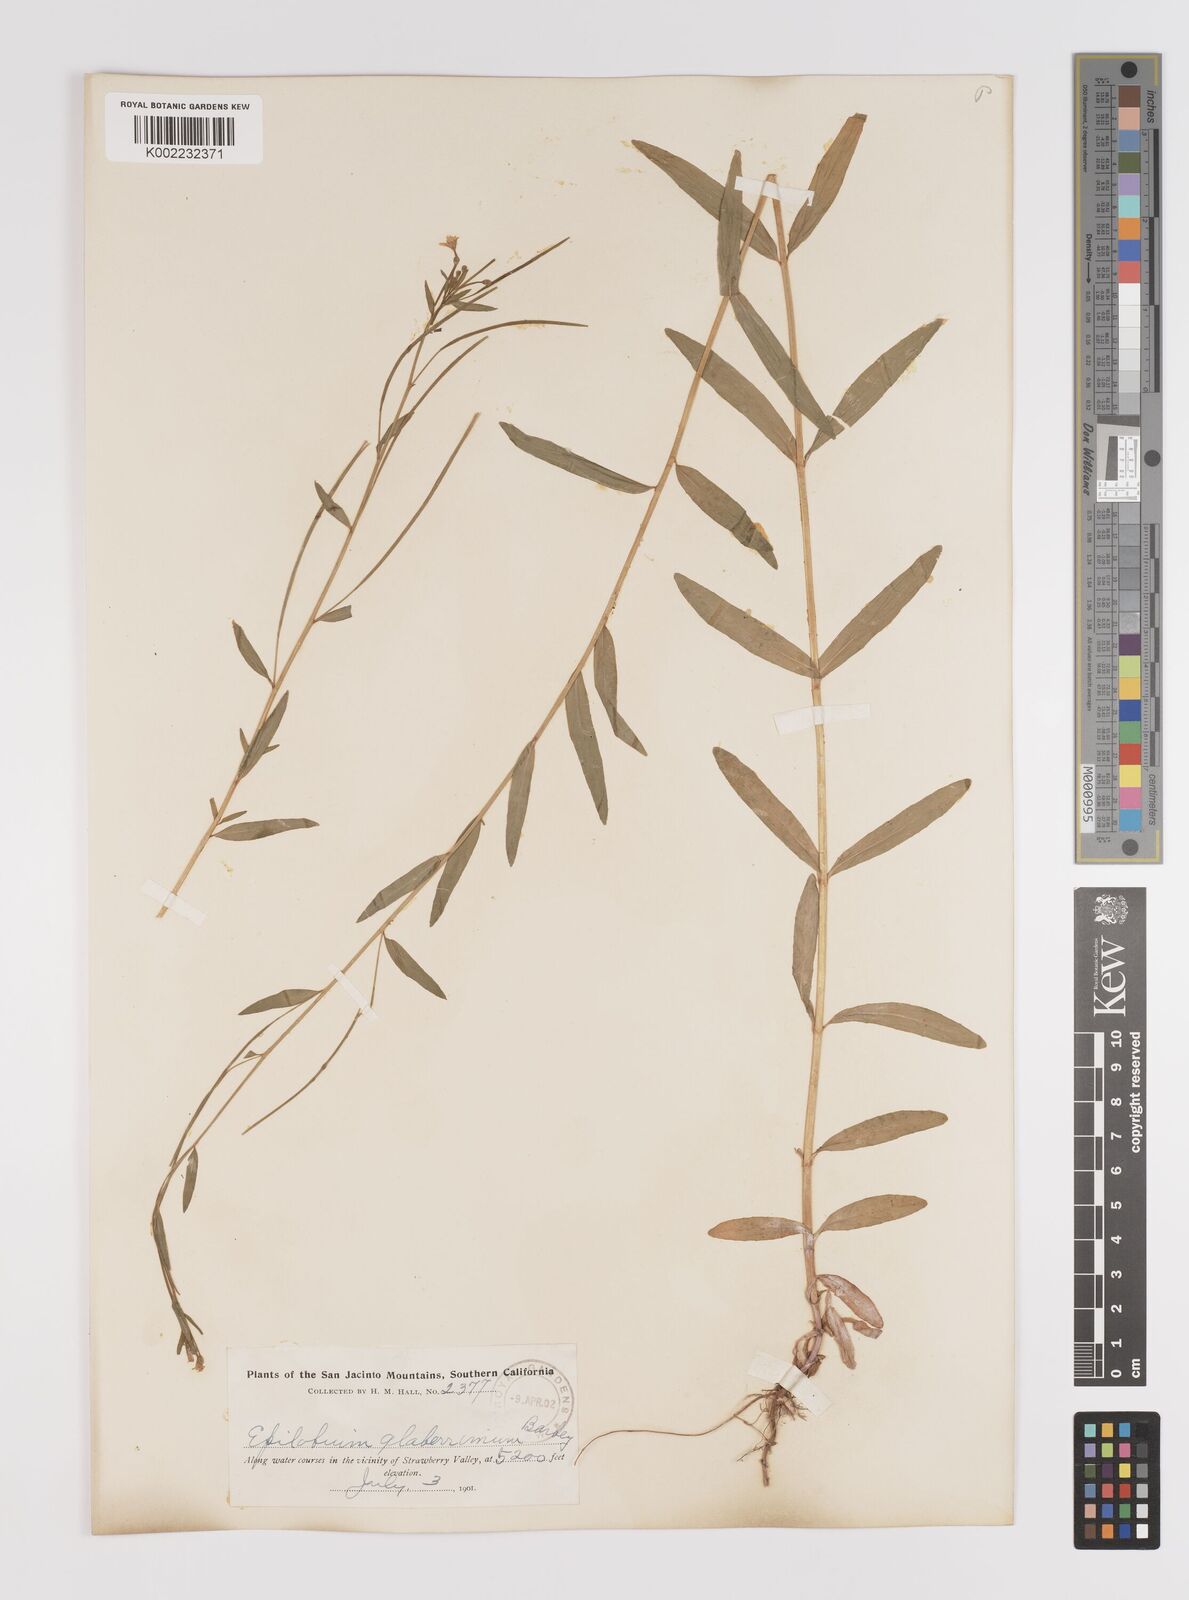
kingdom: Plantae
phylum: Tracheophyta
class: Magnoliopsida
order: Myrtales
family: Onagraceae
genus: Epilobium
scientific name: Epilobium glaberrimum
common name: Glaucous willowherb
